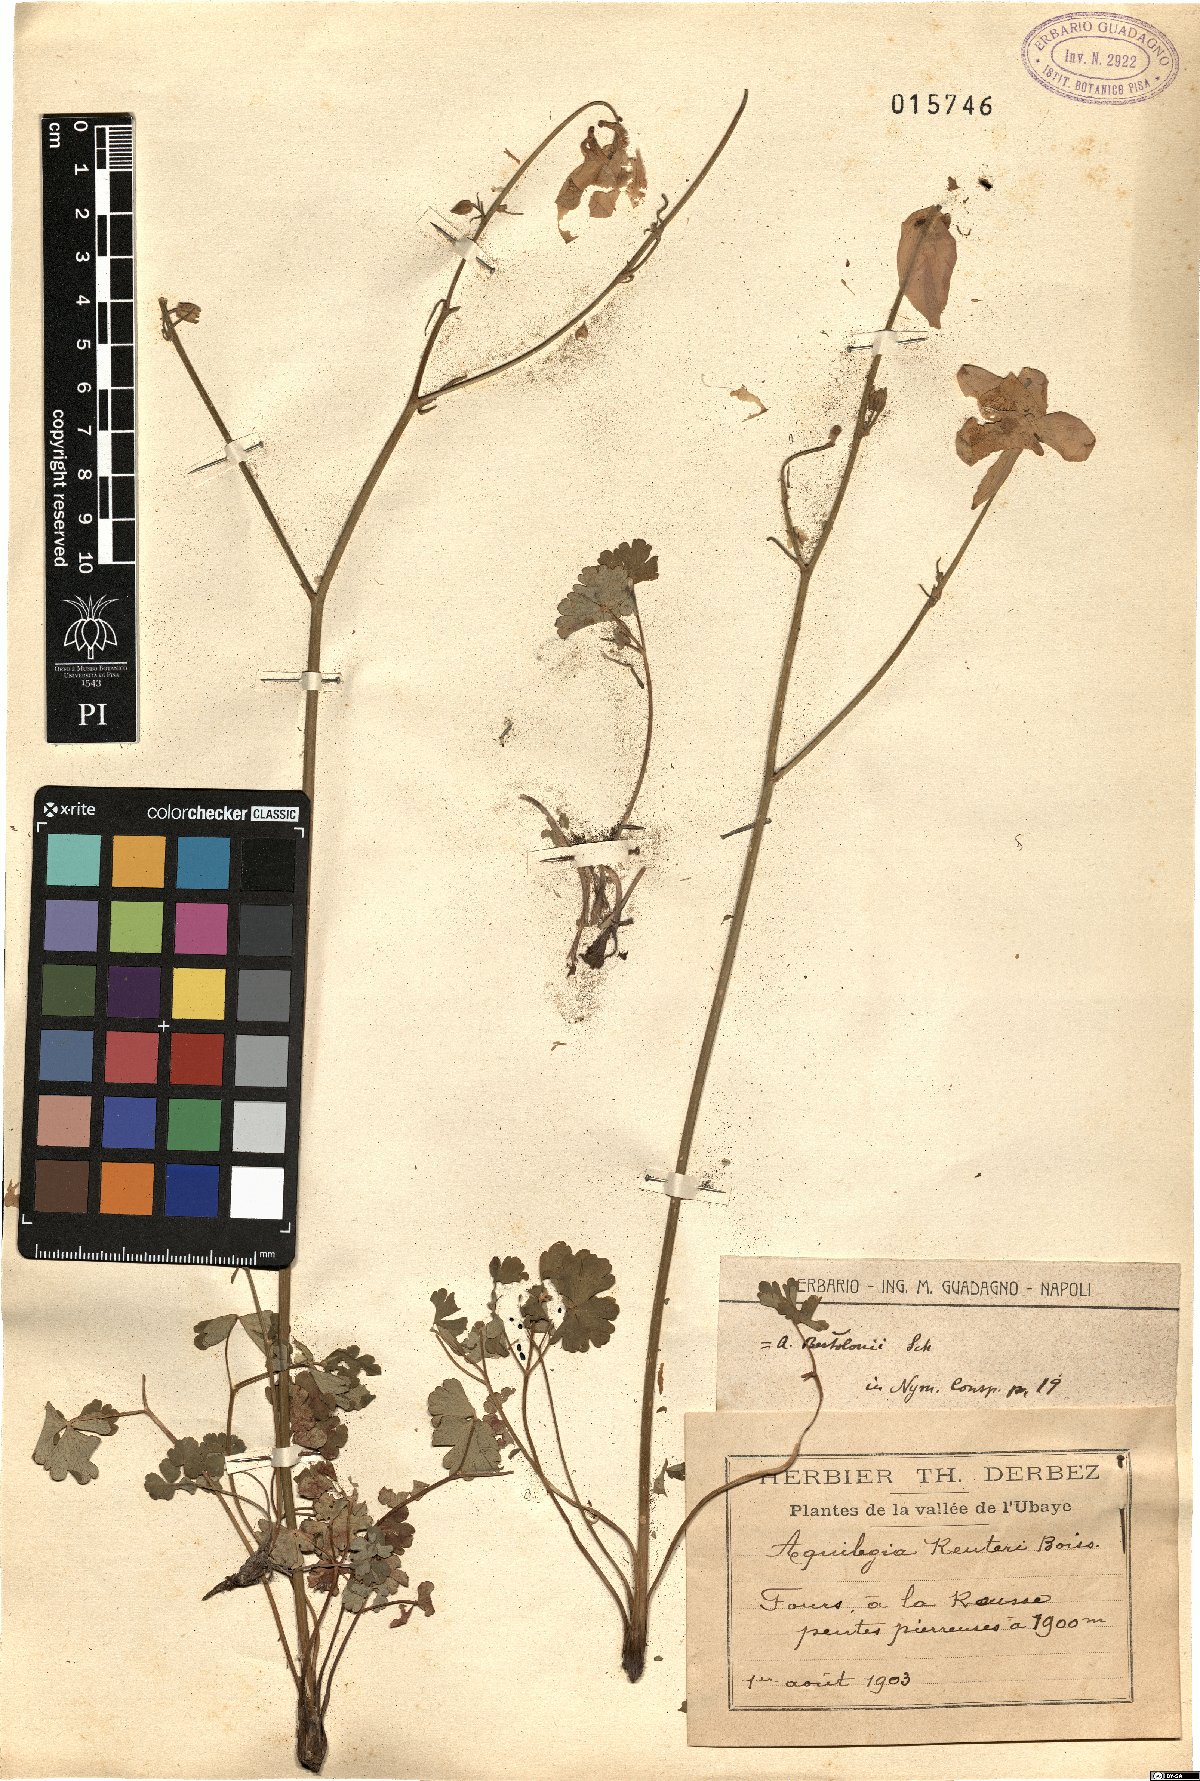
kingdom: Plantae
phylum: Tracheophyta
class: Magnoliopsida
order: Ranunculales
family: Ranunculaceae
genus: Aquilegia
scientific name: Aquilegia bertolonii
